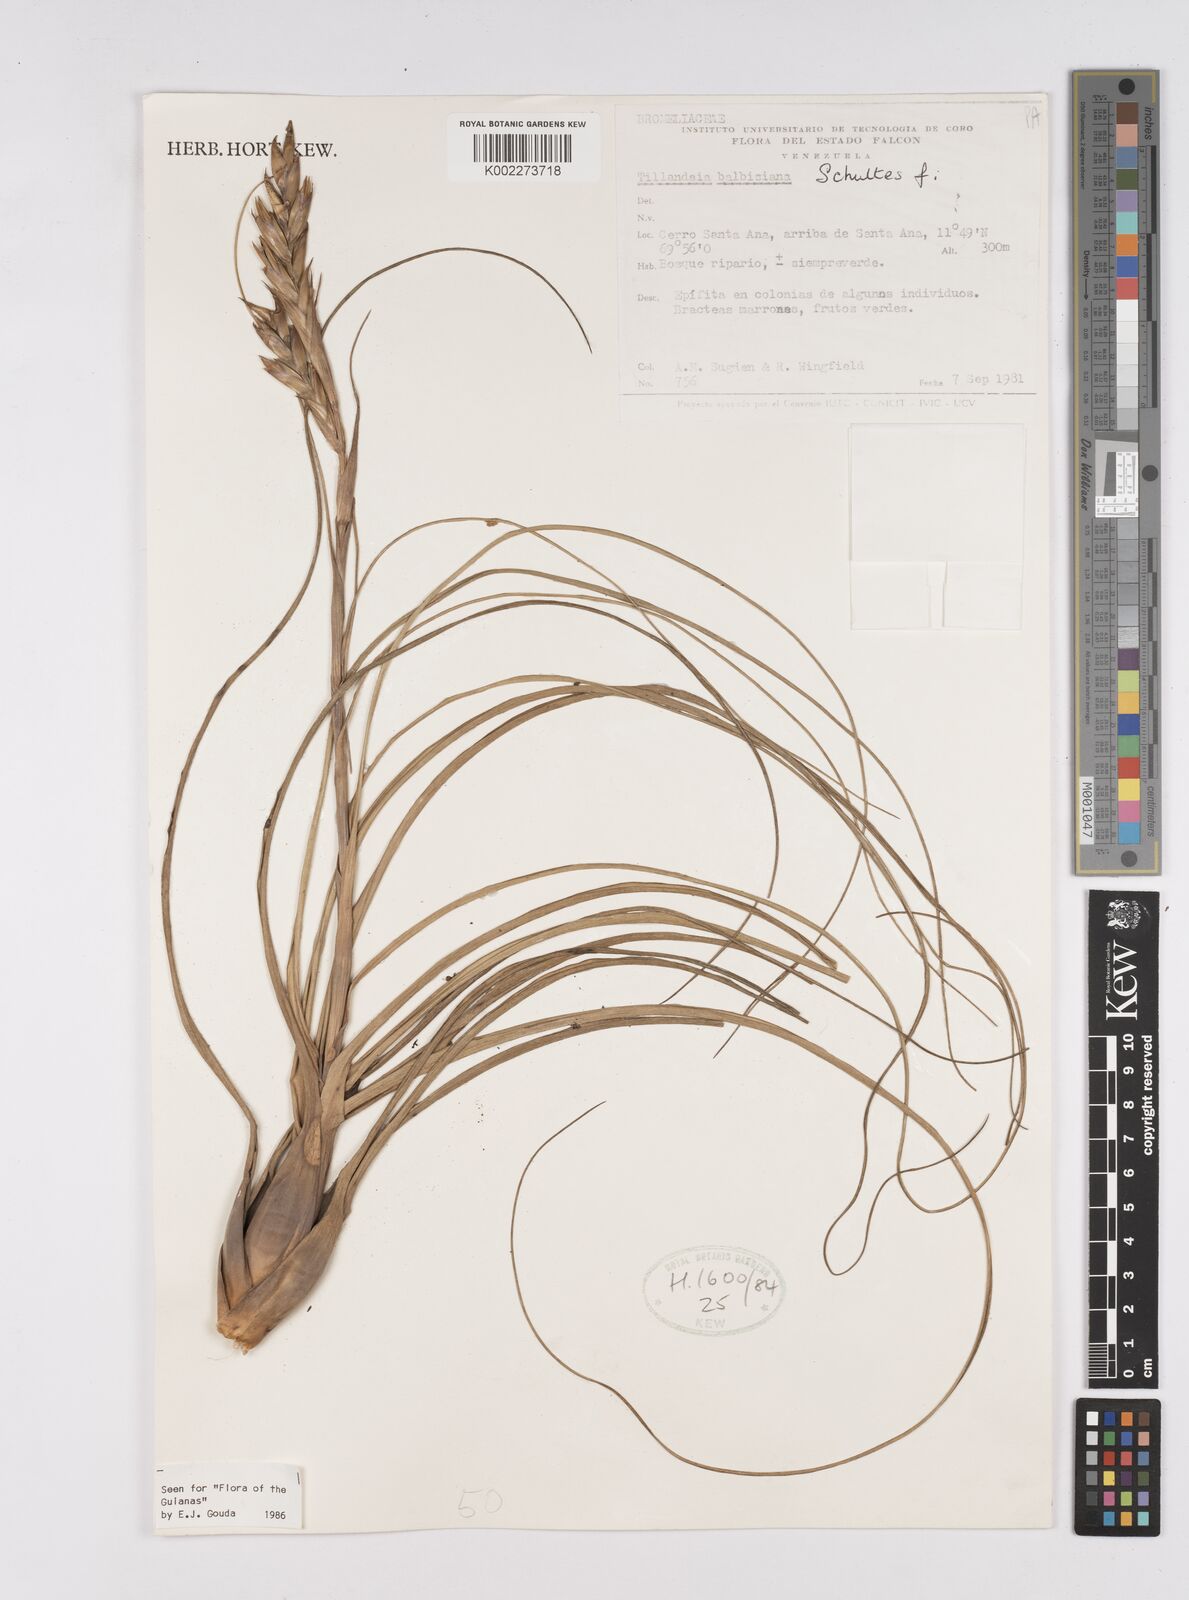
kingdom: Plantae
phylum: Tracheophyta
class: Liliopsida
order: Poales
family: Bromeliaceae
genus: Tillandsia
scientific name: Tillandsia balbisiana
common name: Northern needleleaf
